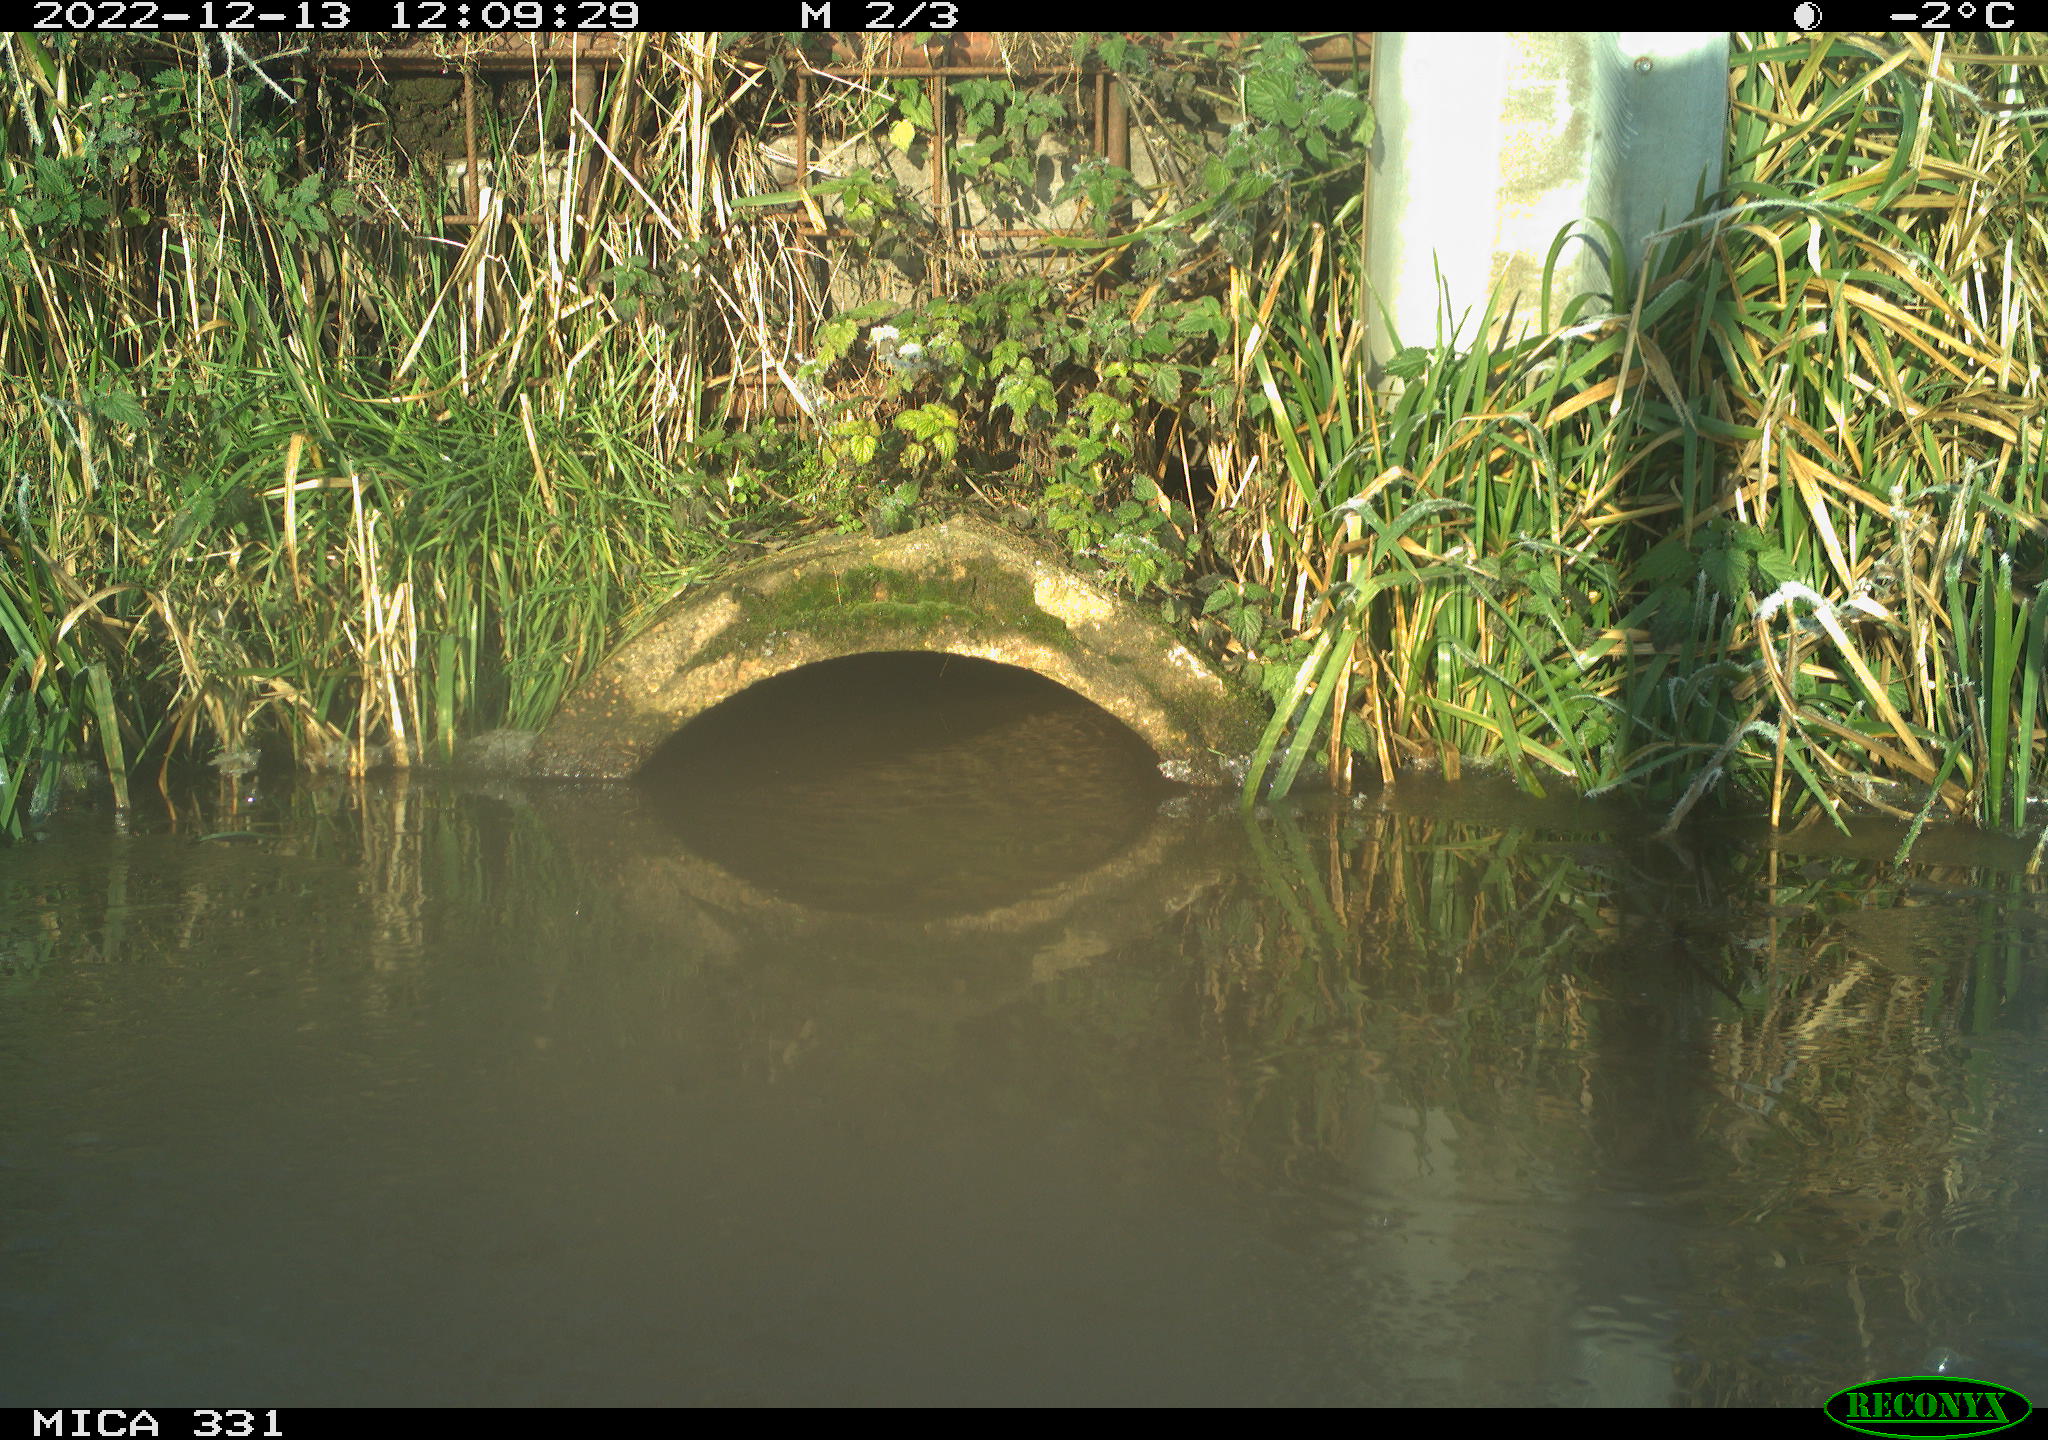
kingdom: Animalia
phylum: Chordata
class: Aves
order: Pelecaniformes
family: Ardeidae
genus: Ardea
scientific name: Ardea cinerea
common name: Grey heron
